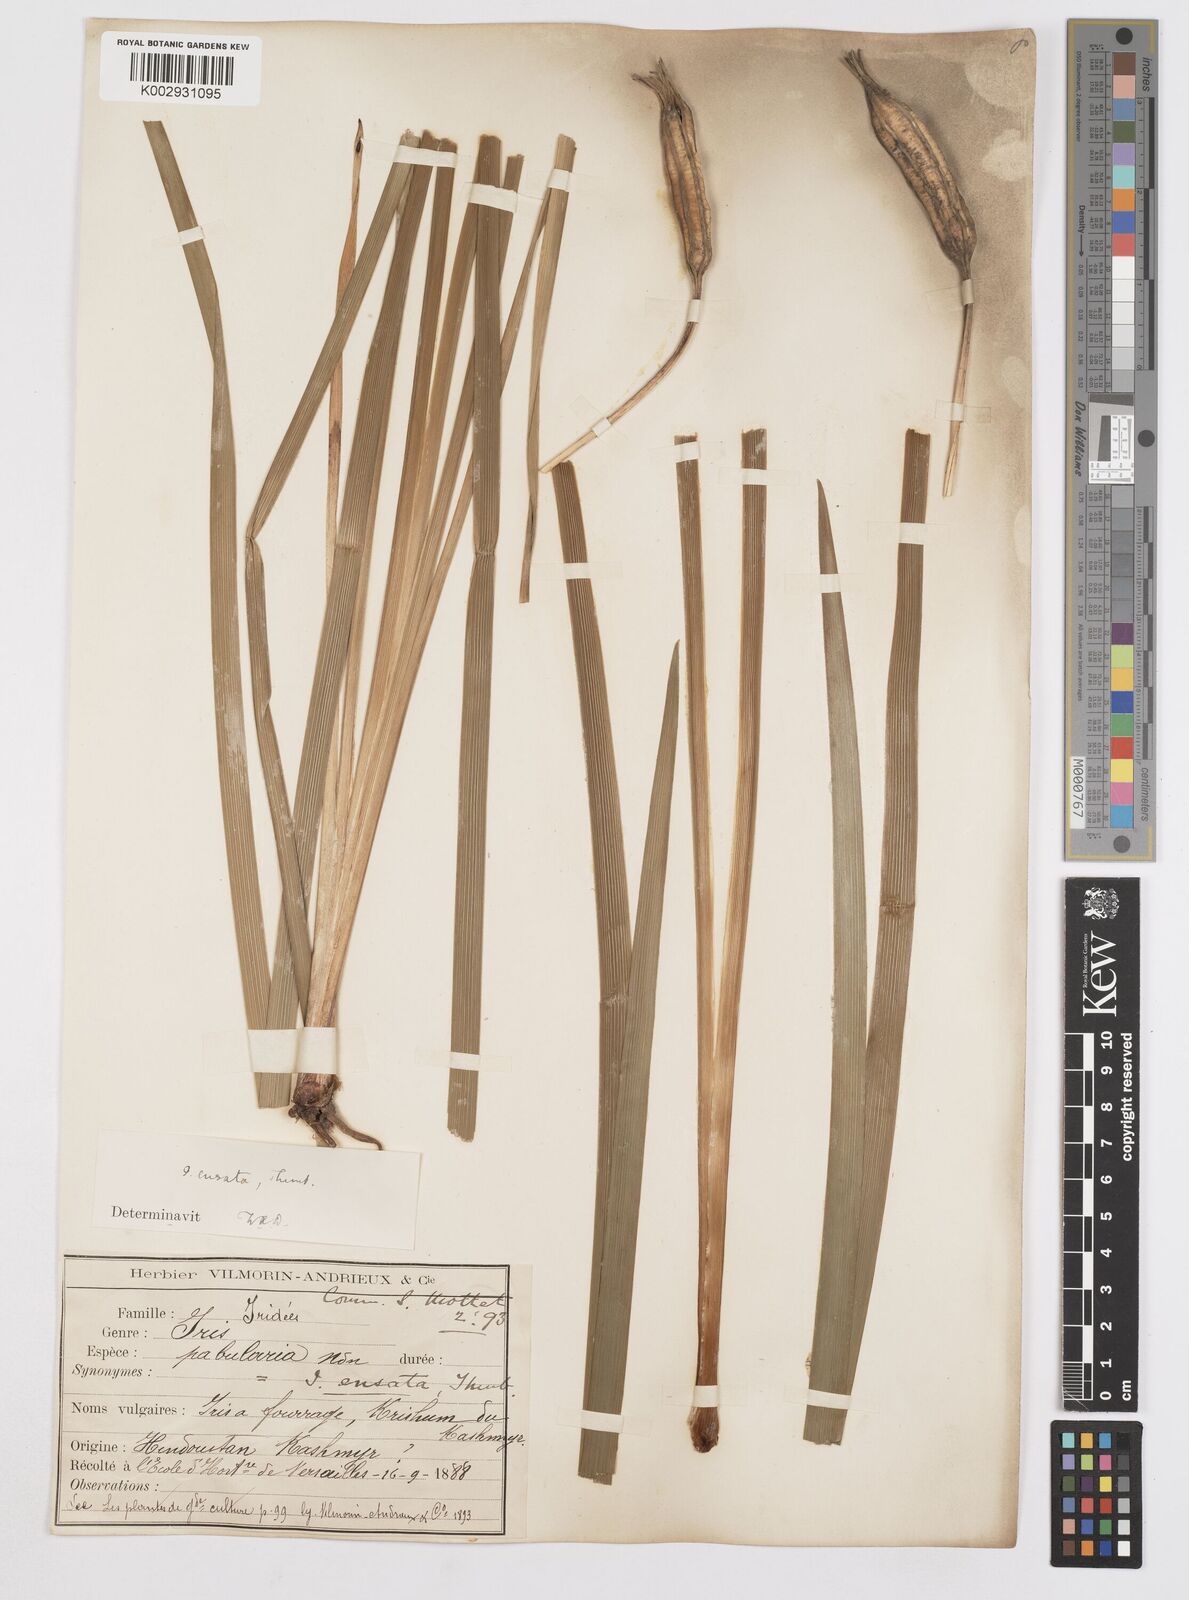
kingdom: Plantae
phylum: Tracheophyta
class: Liliopsida
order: Asparagales
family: Iridaceae
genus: Iris
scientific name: Iris ensata
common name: Beaked iris
